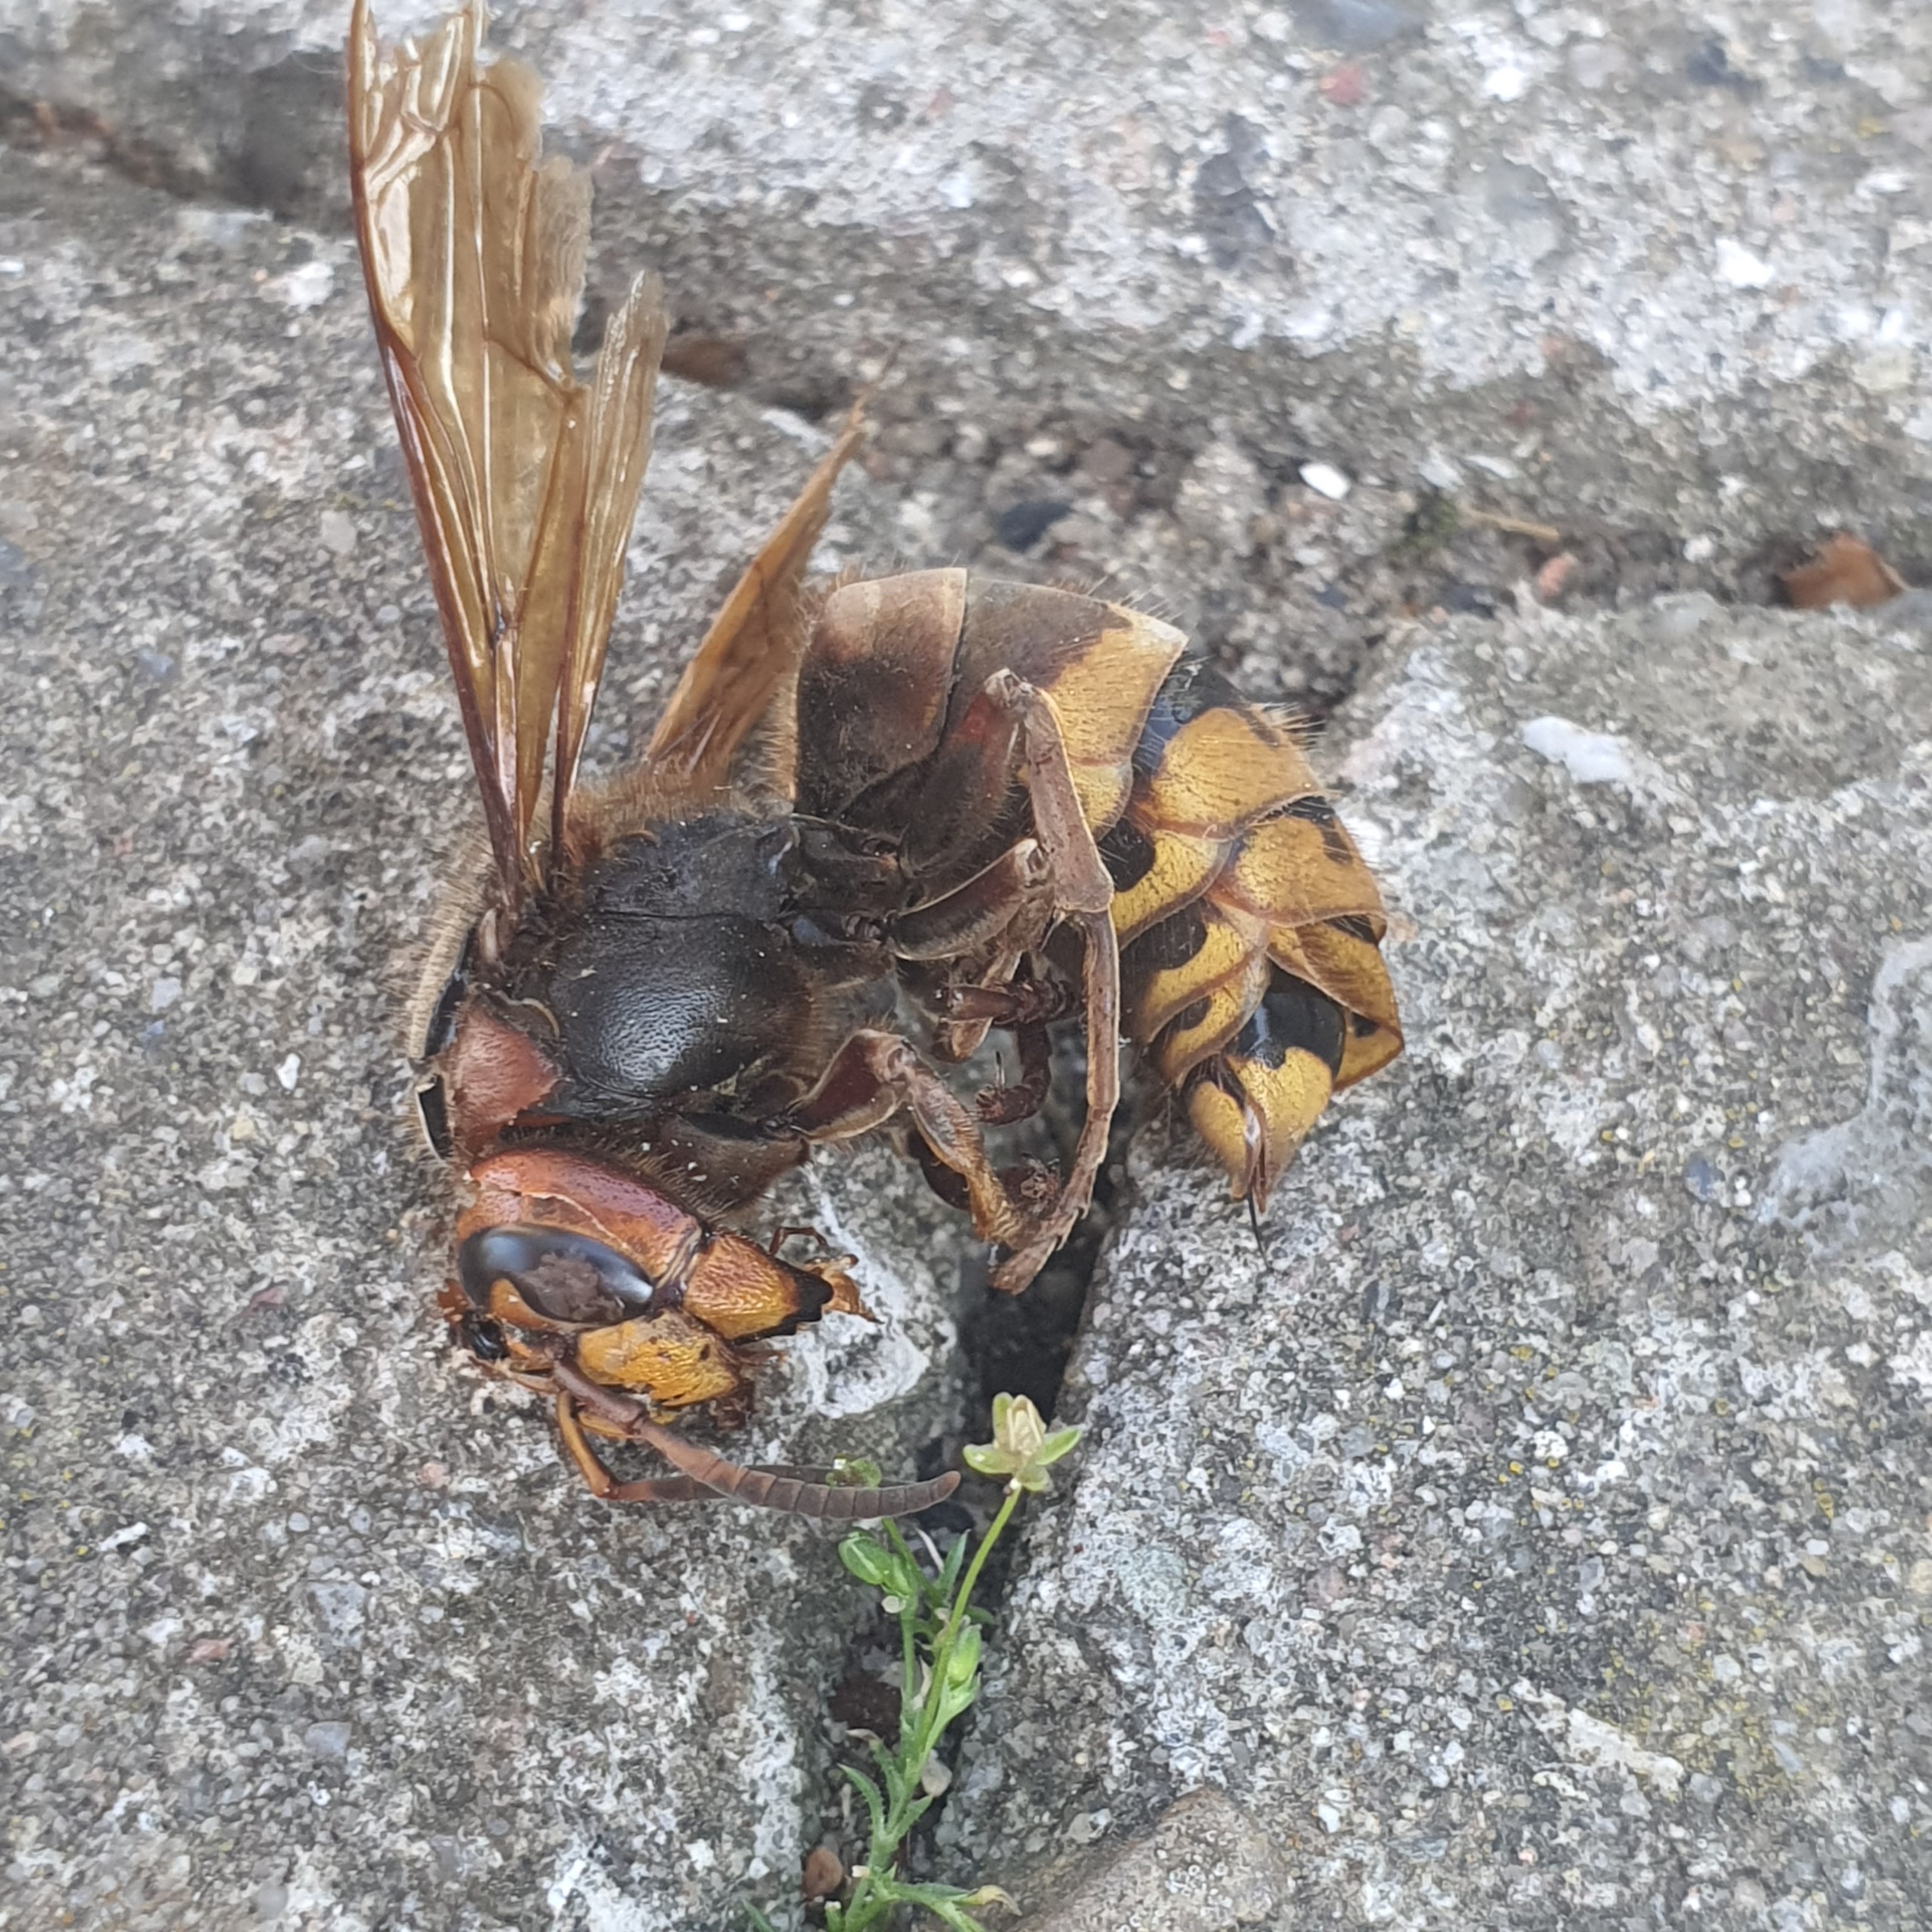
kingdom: Animalia
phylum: Arthropoda
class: Insecta
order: Hymenoptera
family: Vespidae
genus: Vespa
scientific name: Vespa crabro
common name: Stor gedehams
